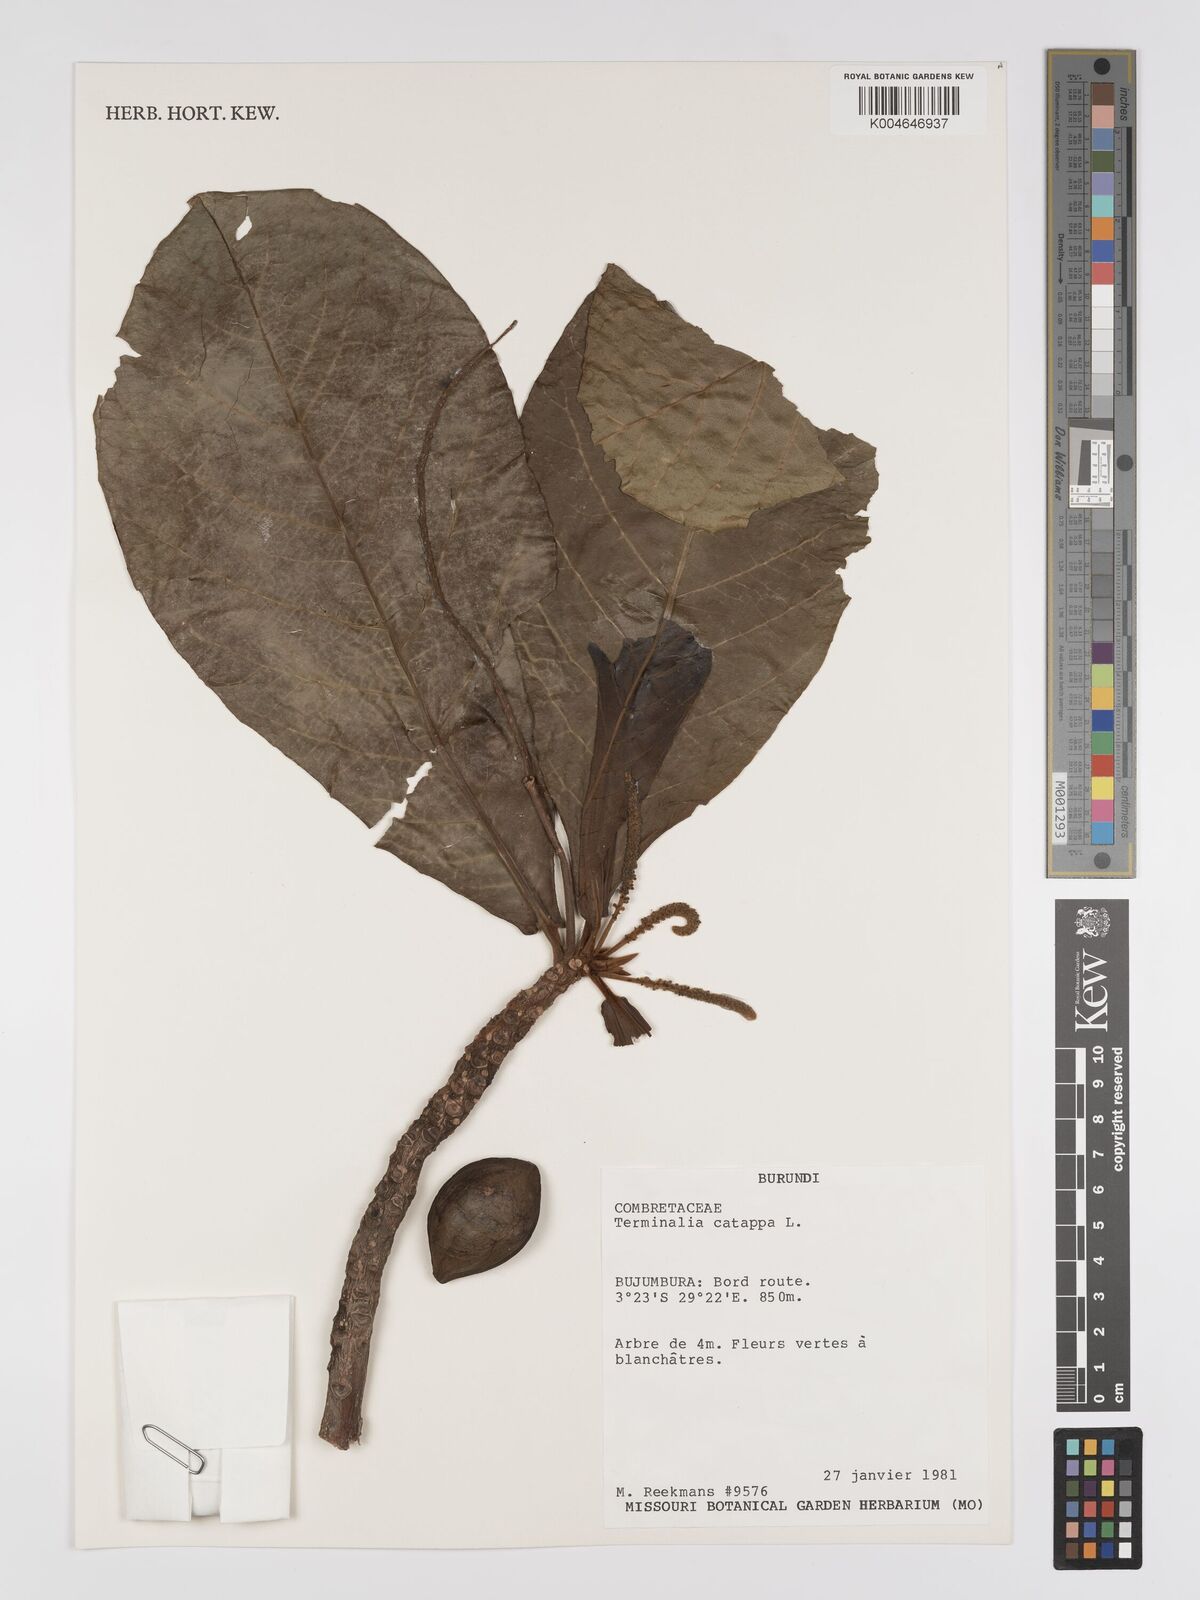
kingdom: Plantae
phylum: Tracheophyta
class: Magnoliopsida
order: Myrtales
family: Combretaceae
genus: Terminalia
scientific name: Terminalia catappa
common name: Tropical almond
